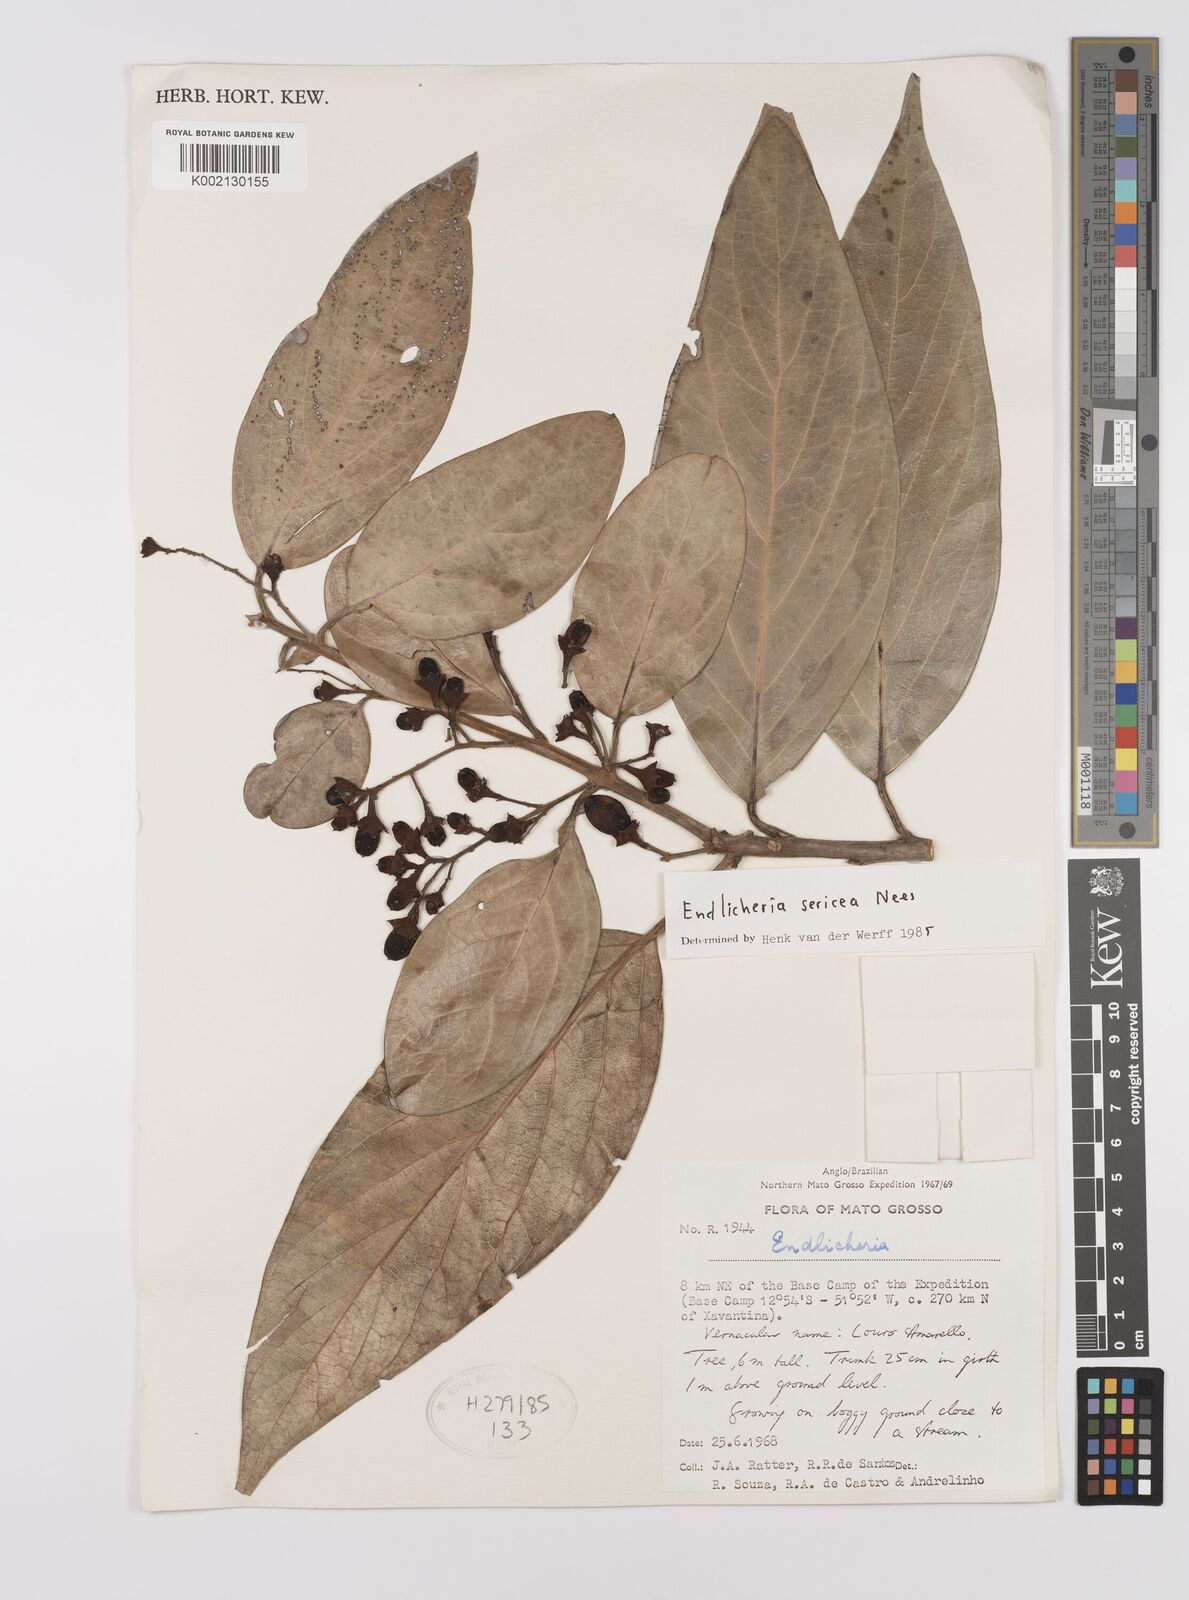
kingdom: Plantae
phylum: Tracheophyta
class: Magnoliopsida
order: Laurales
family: Lauraceae
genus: Endlicheria
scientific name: Endlicheria sericea
